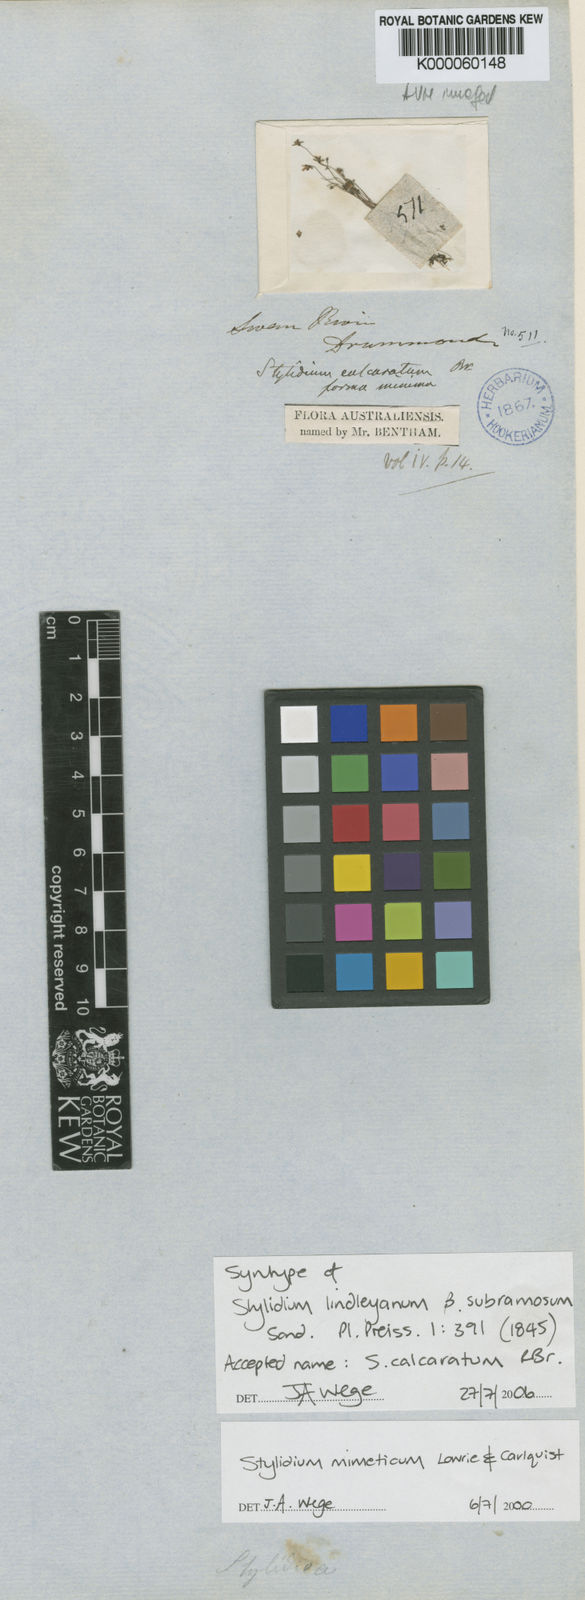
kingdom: Plantae
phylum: Tracheophyta
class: Magnoliopsida
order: Asterales
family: Stylidiaceae
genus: Stylidium
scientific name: Stylidium calcaratum
